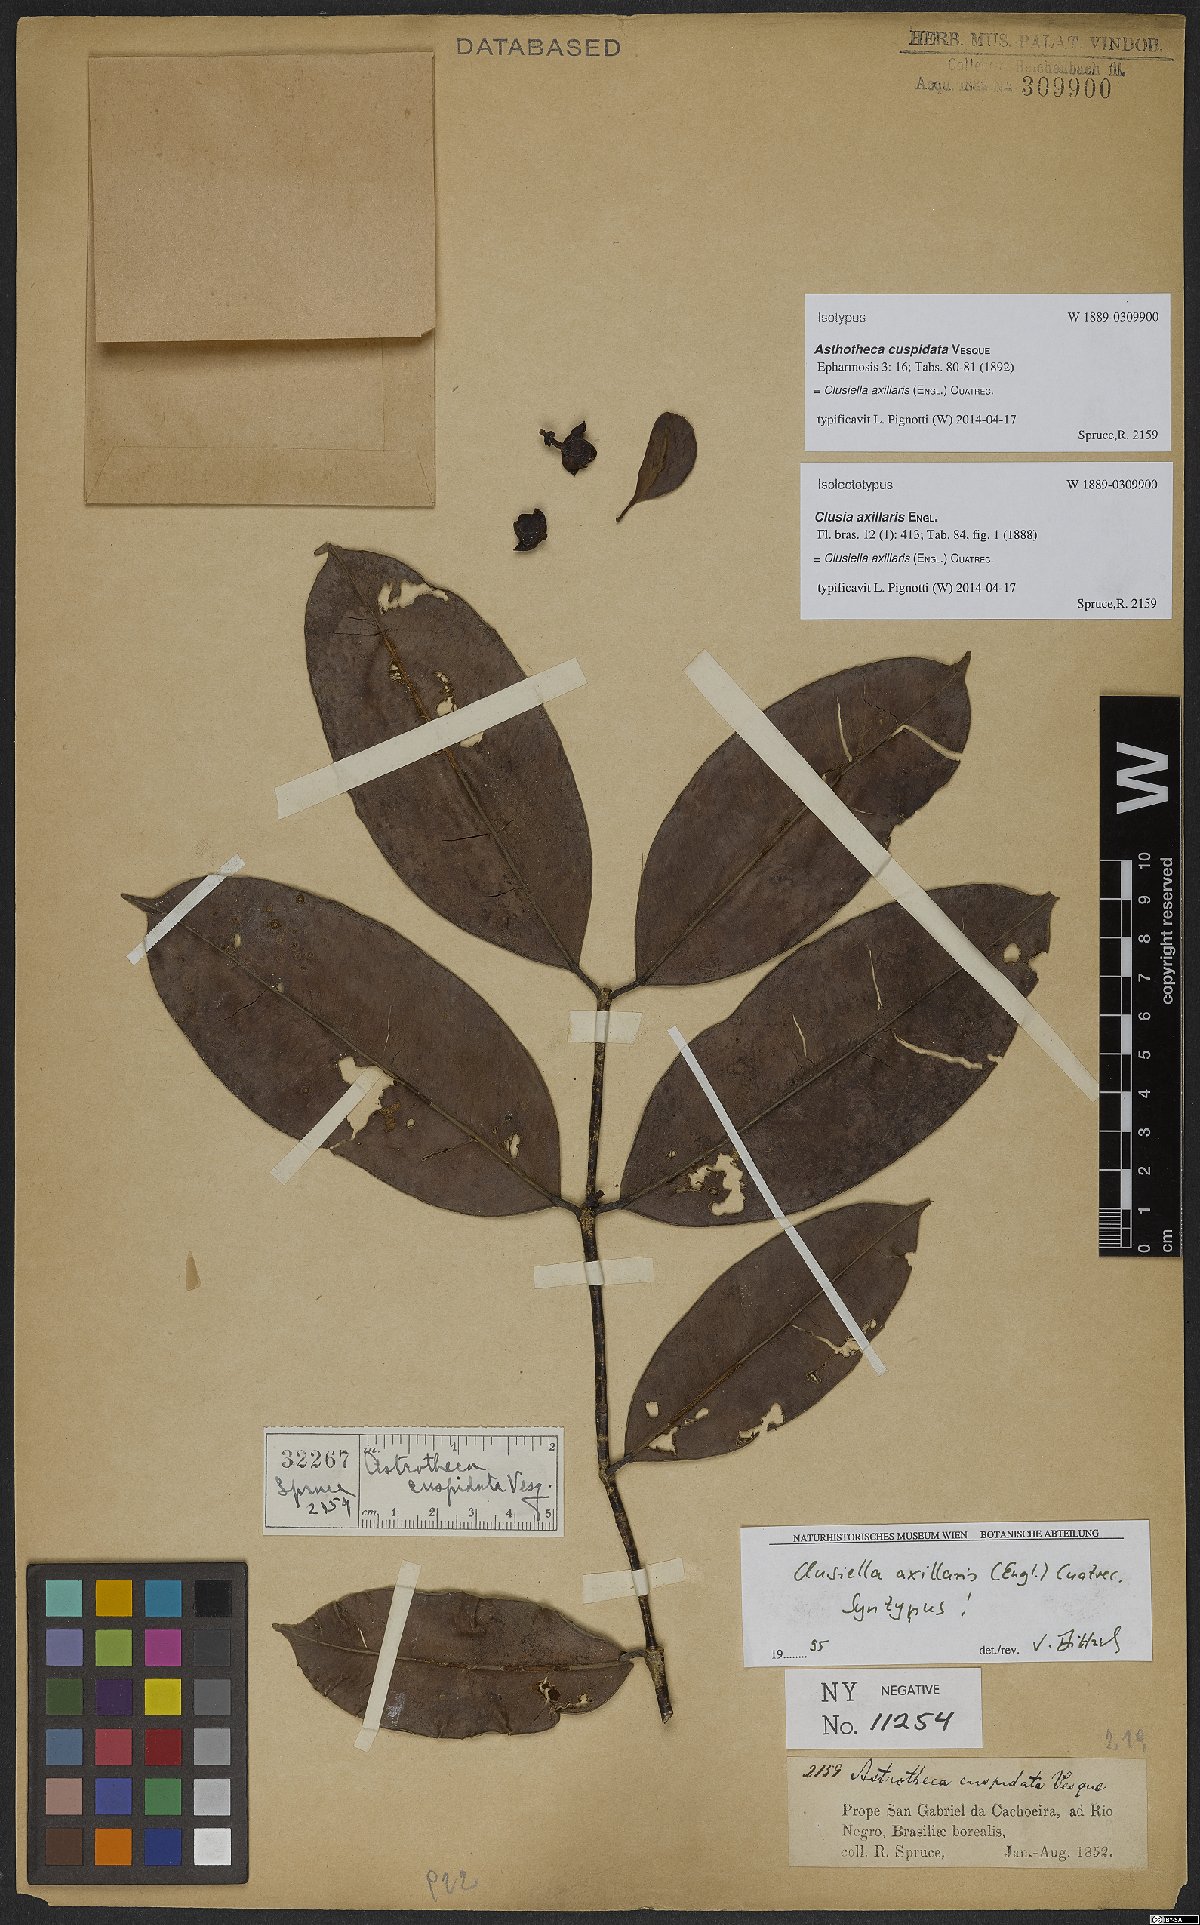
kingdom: Plantae
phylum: Tracheophyta
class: Magnoliopsida
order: Malpighiales
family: Calophyllaceae
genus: Clusiella
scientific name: Clusiella axillaris
